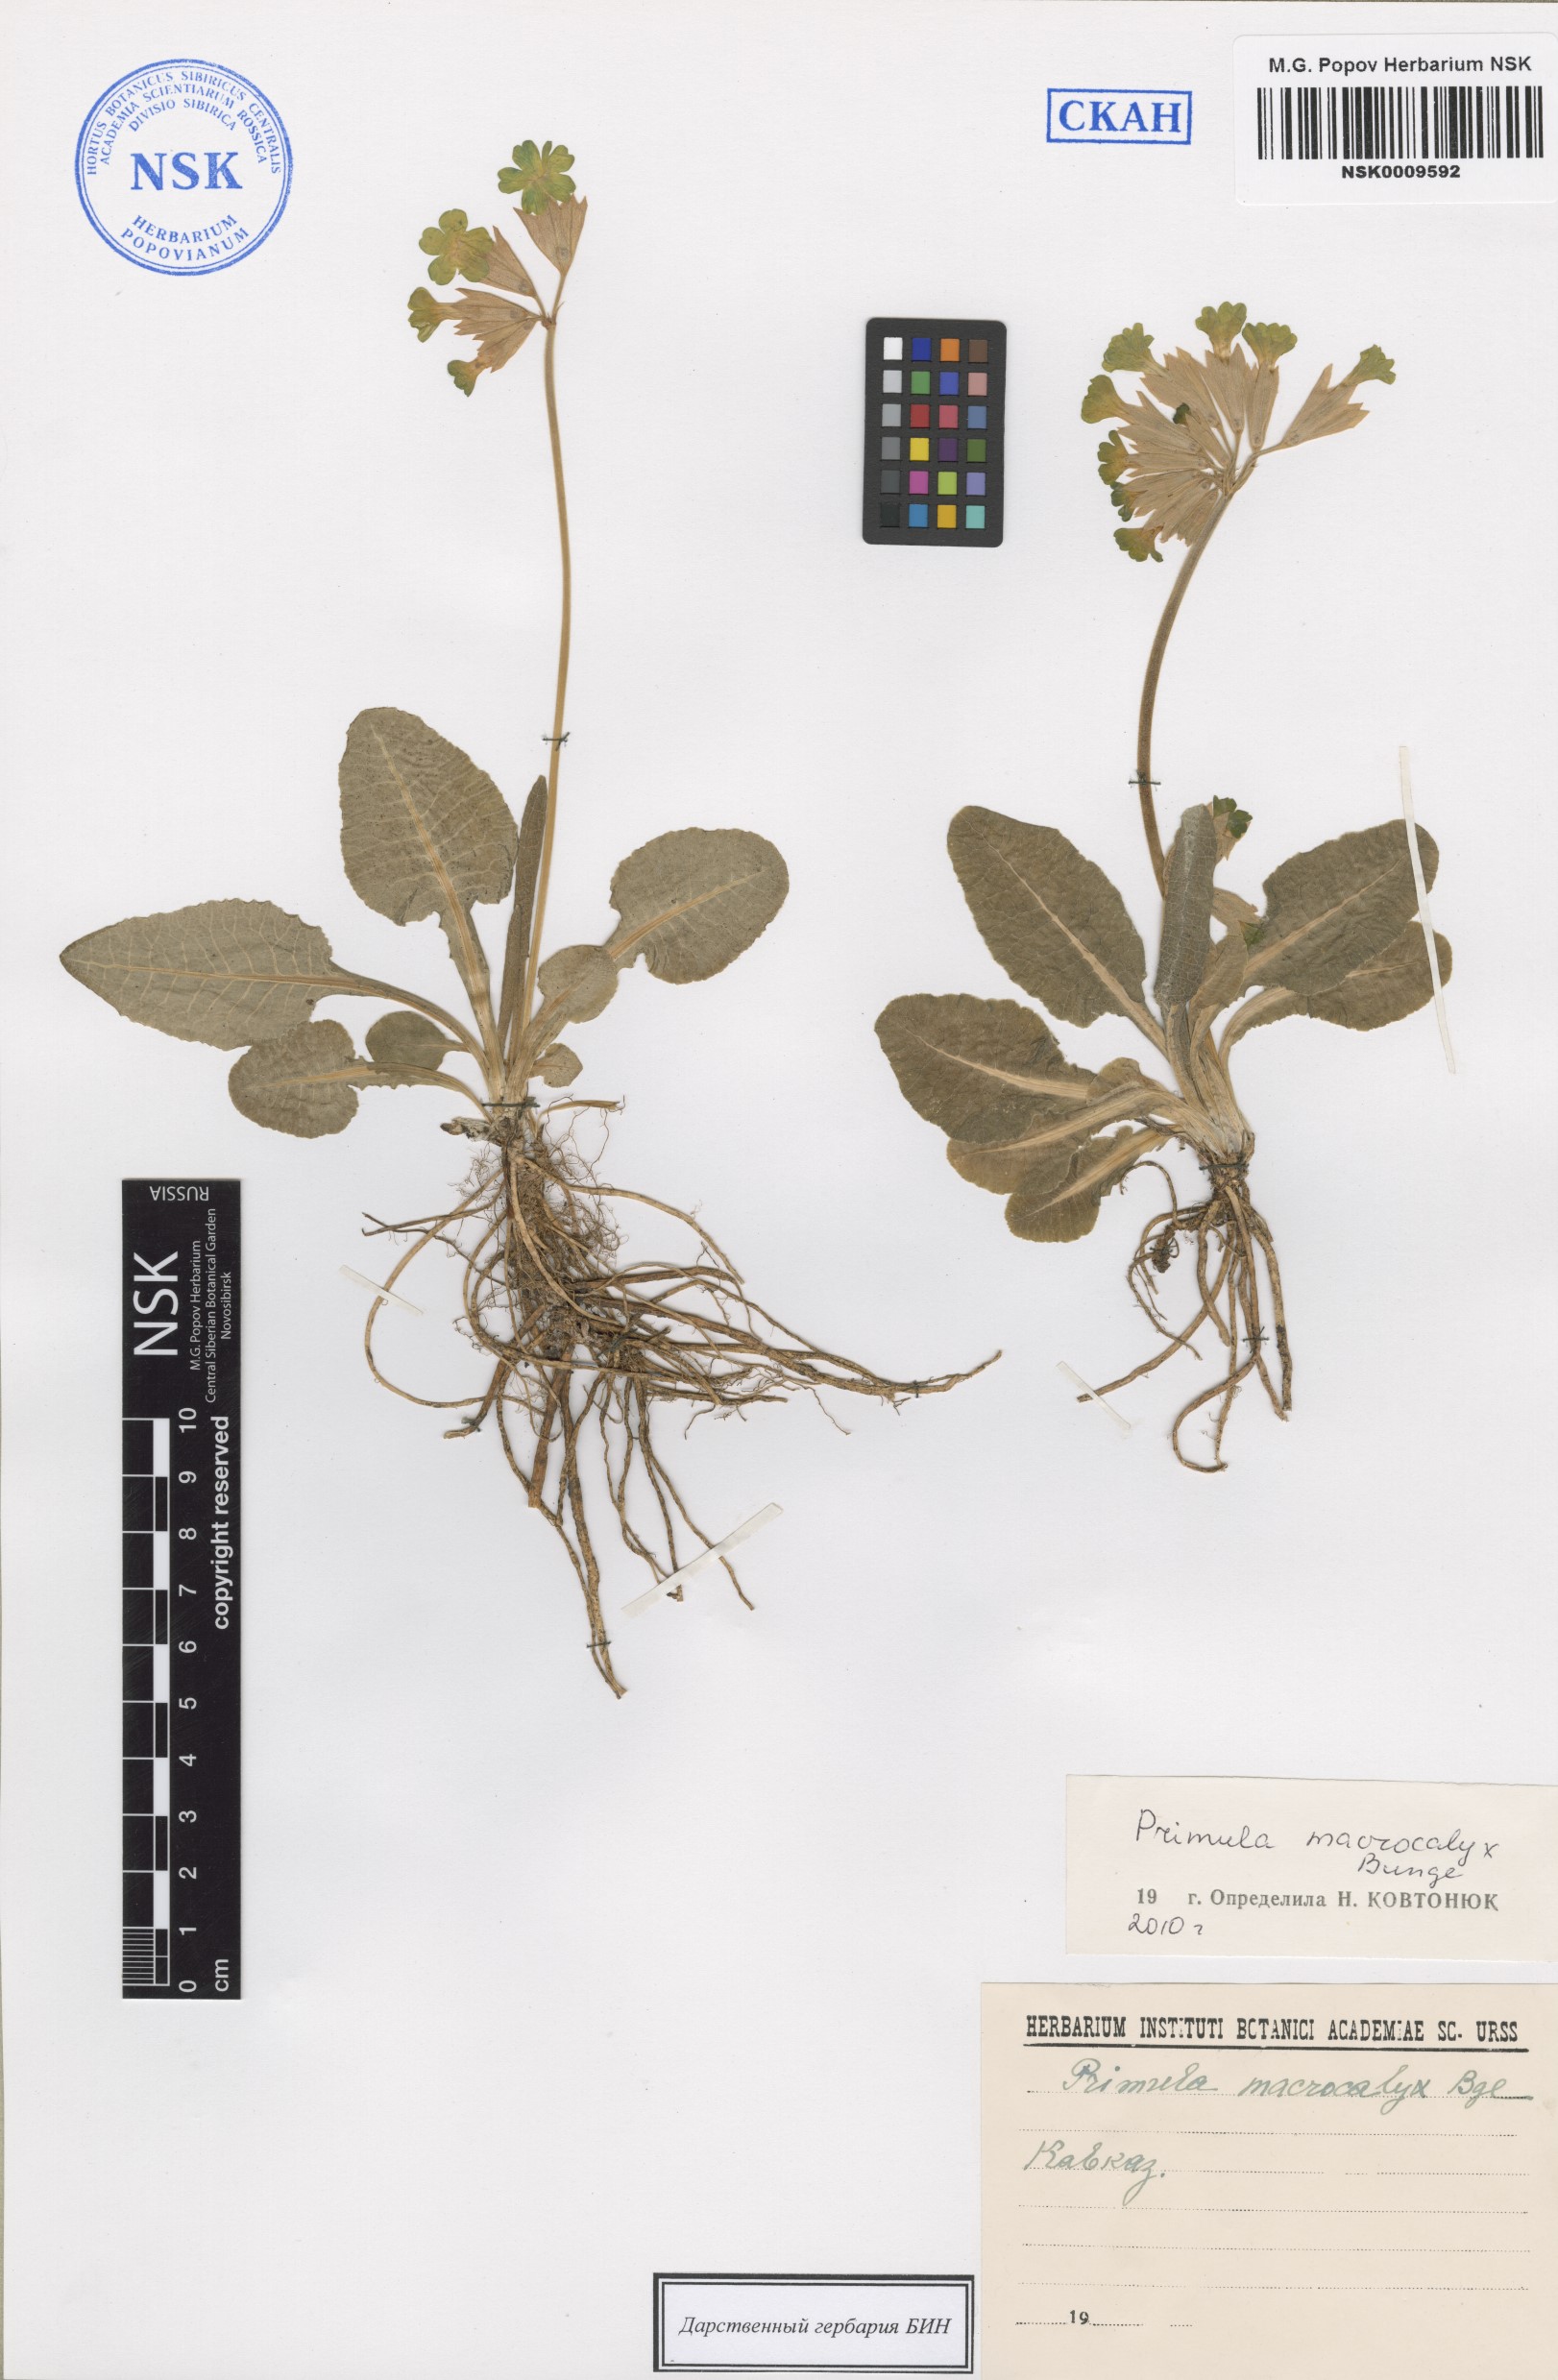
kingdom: Plantae
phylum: Tracheophyta
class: Magnoliopsida
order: Ericales
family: Primulaceae
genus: Primula
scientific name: Primula veris
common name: Cowslip
